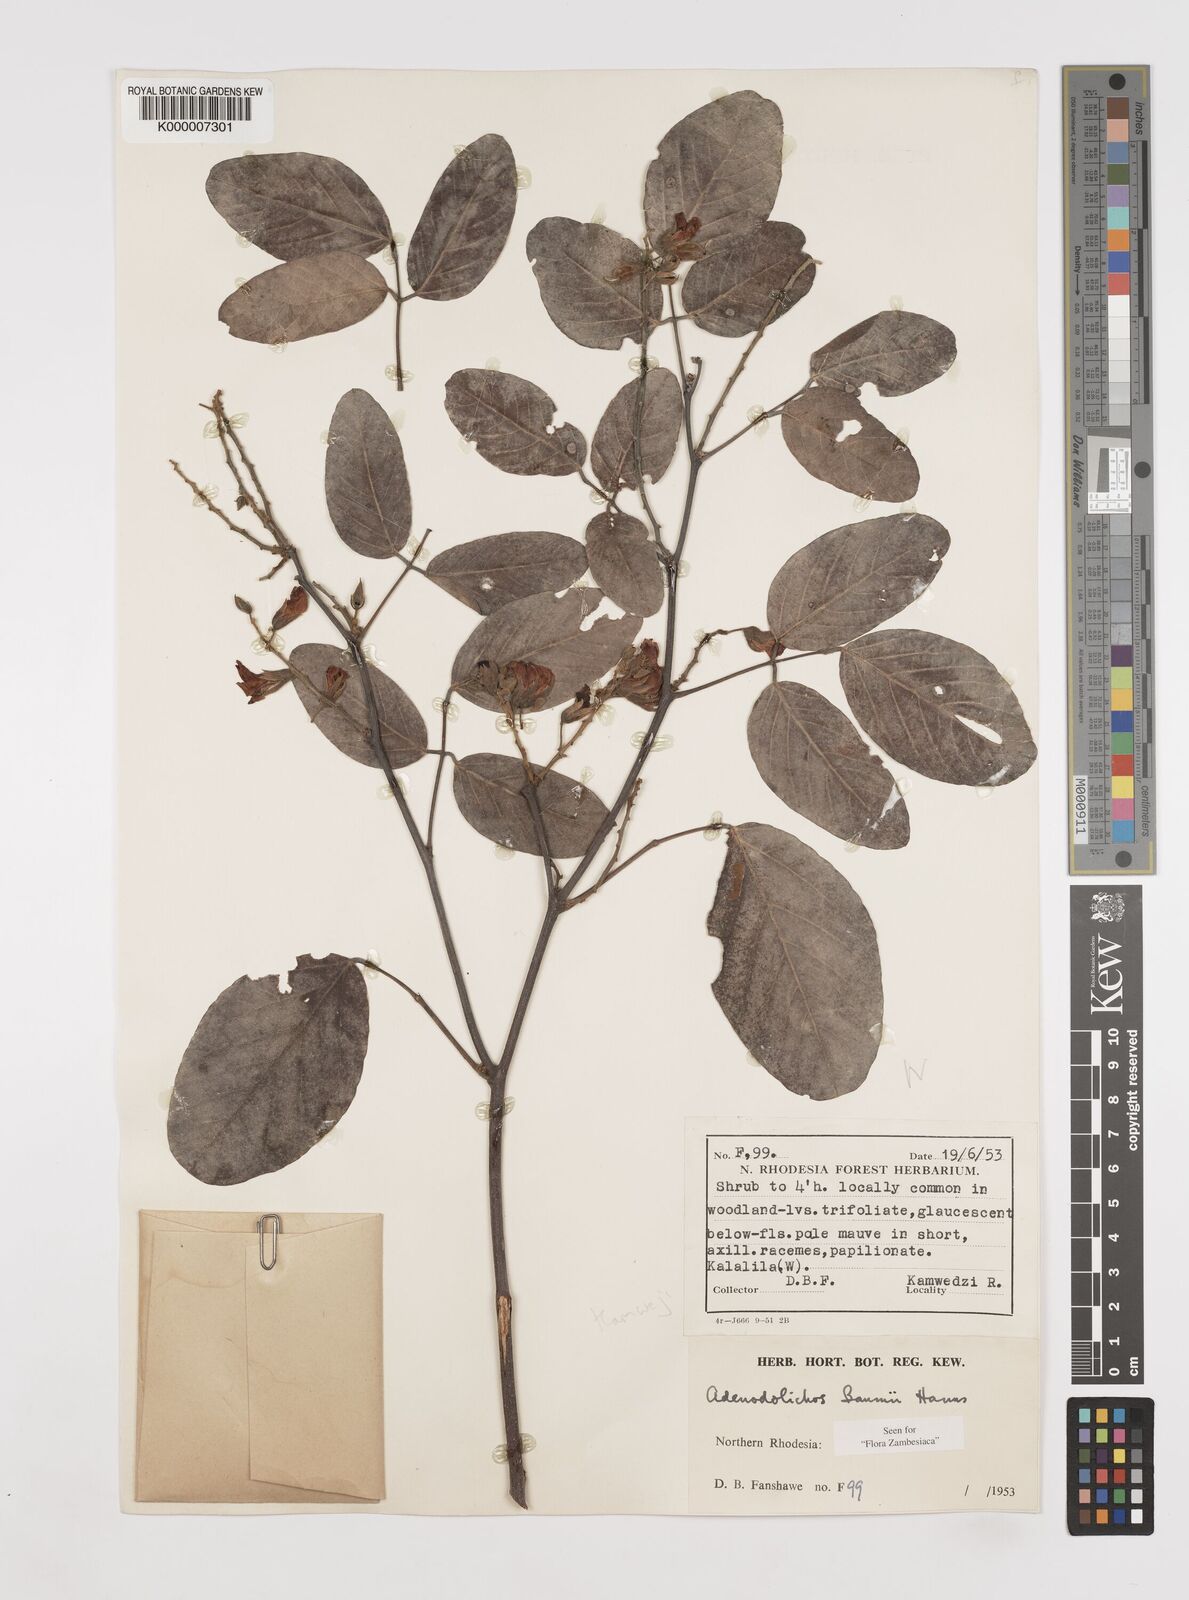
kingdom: Plantae
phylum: Tracheophyta
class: Magnoliopsida
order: Fabales
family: Fabaceae
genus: Adenodolichos
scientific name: Adenodolichos baumii
